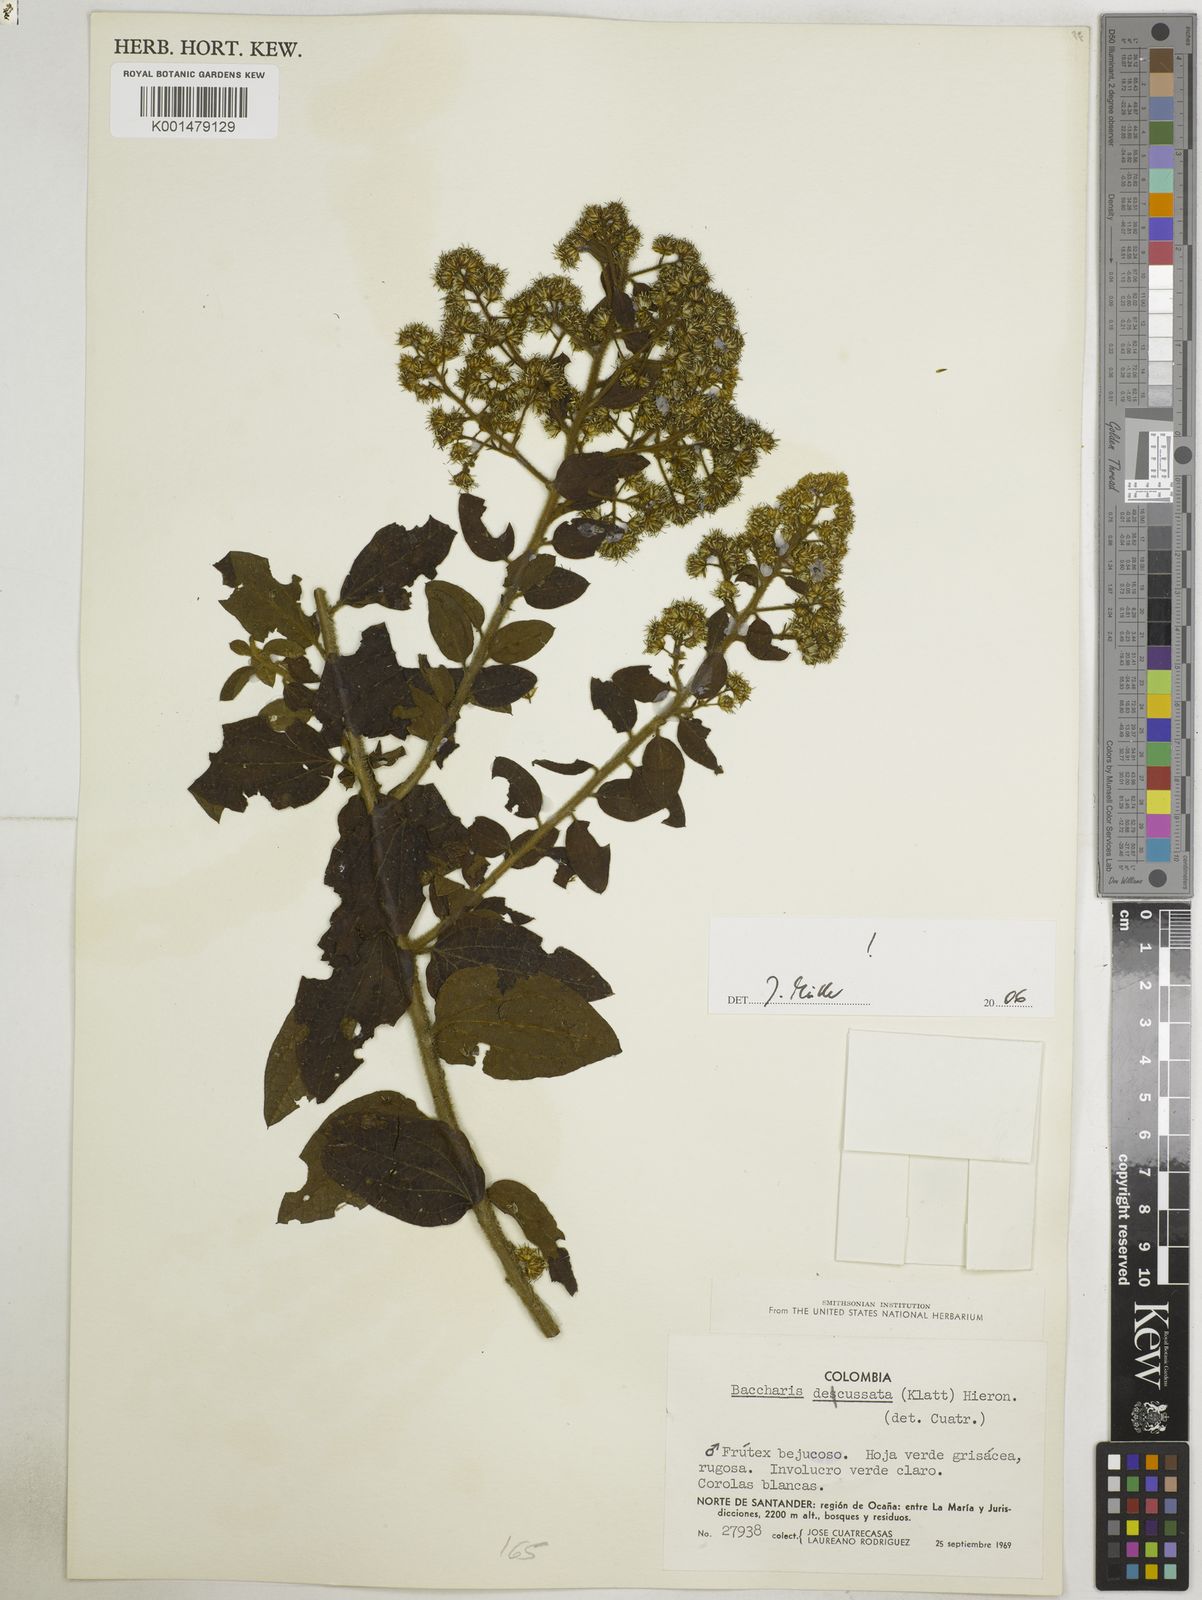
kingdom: Plantae
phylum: Tracheophyta
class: Magnoliopsida
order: Asterales
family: Asteraceae
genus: Baccharis
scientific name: Baccharis decussata
